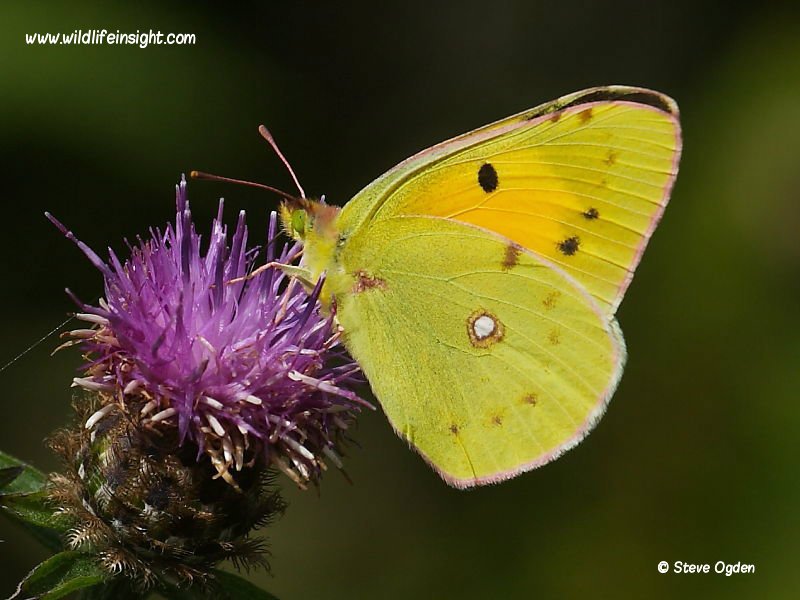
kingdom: Animalia
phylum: Arthropoda
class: Insecta
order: Lepidoptera
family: Pieridae
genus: Colias
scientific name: Colias philodice
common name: Clouded Sulphur
